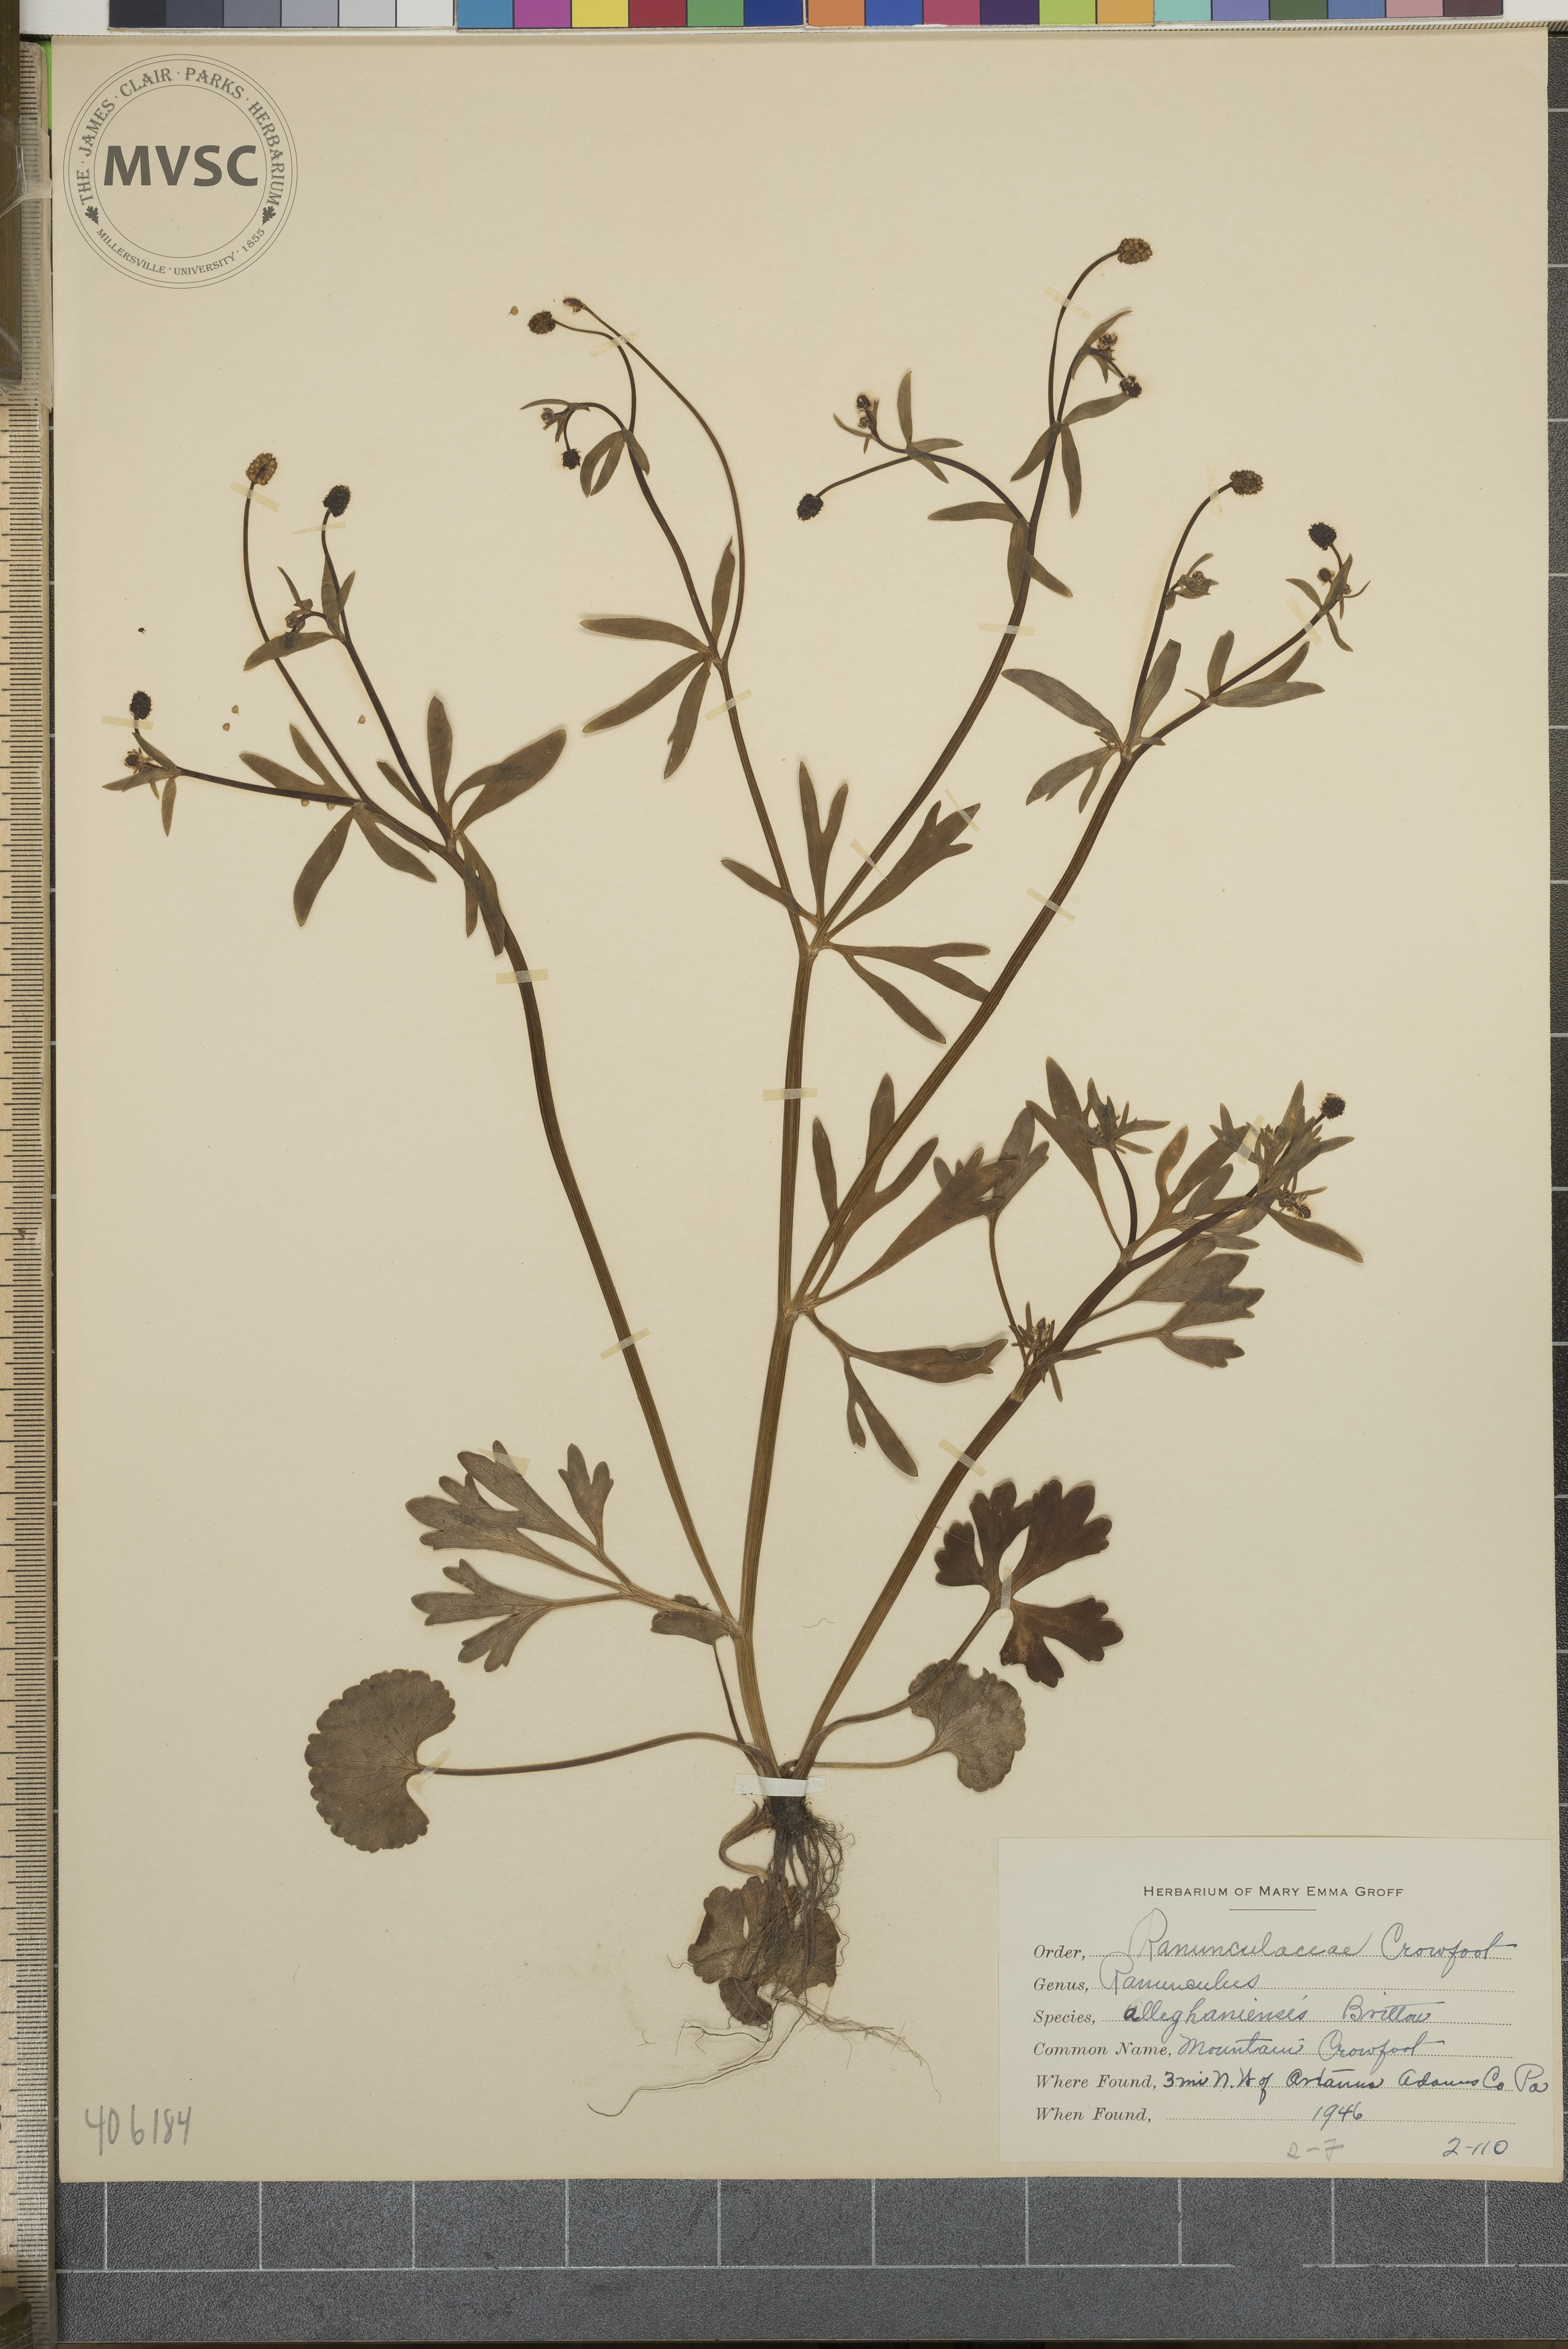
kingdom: Plantae
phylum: Tracheophyta
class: Magnoliopsida
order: Ranunculales
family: Ranunculaceae
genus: Ranunculus
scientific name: Ranunculus allegheniensis
